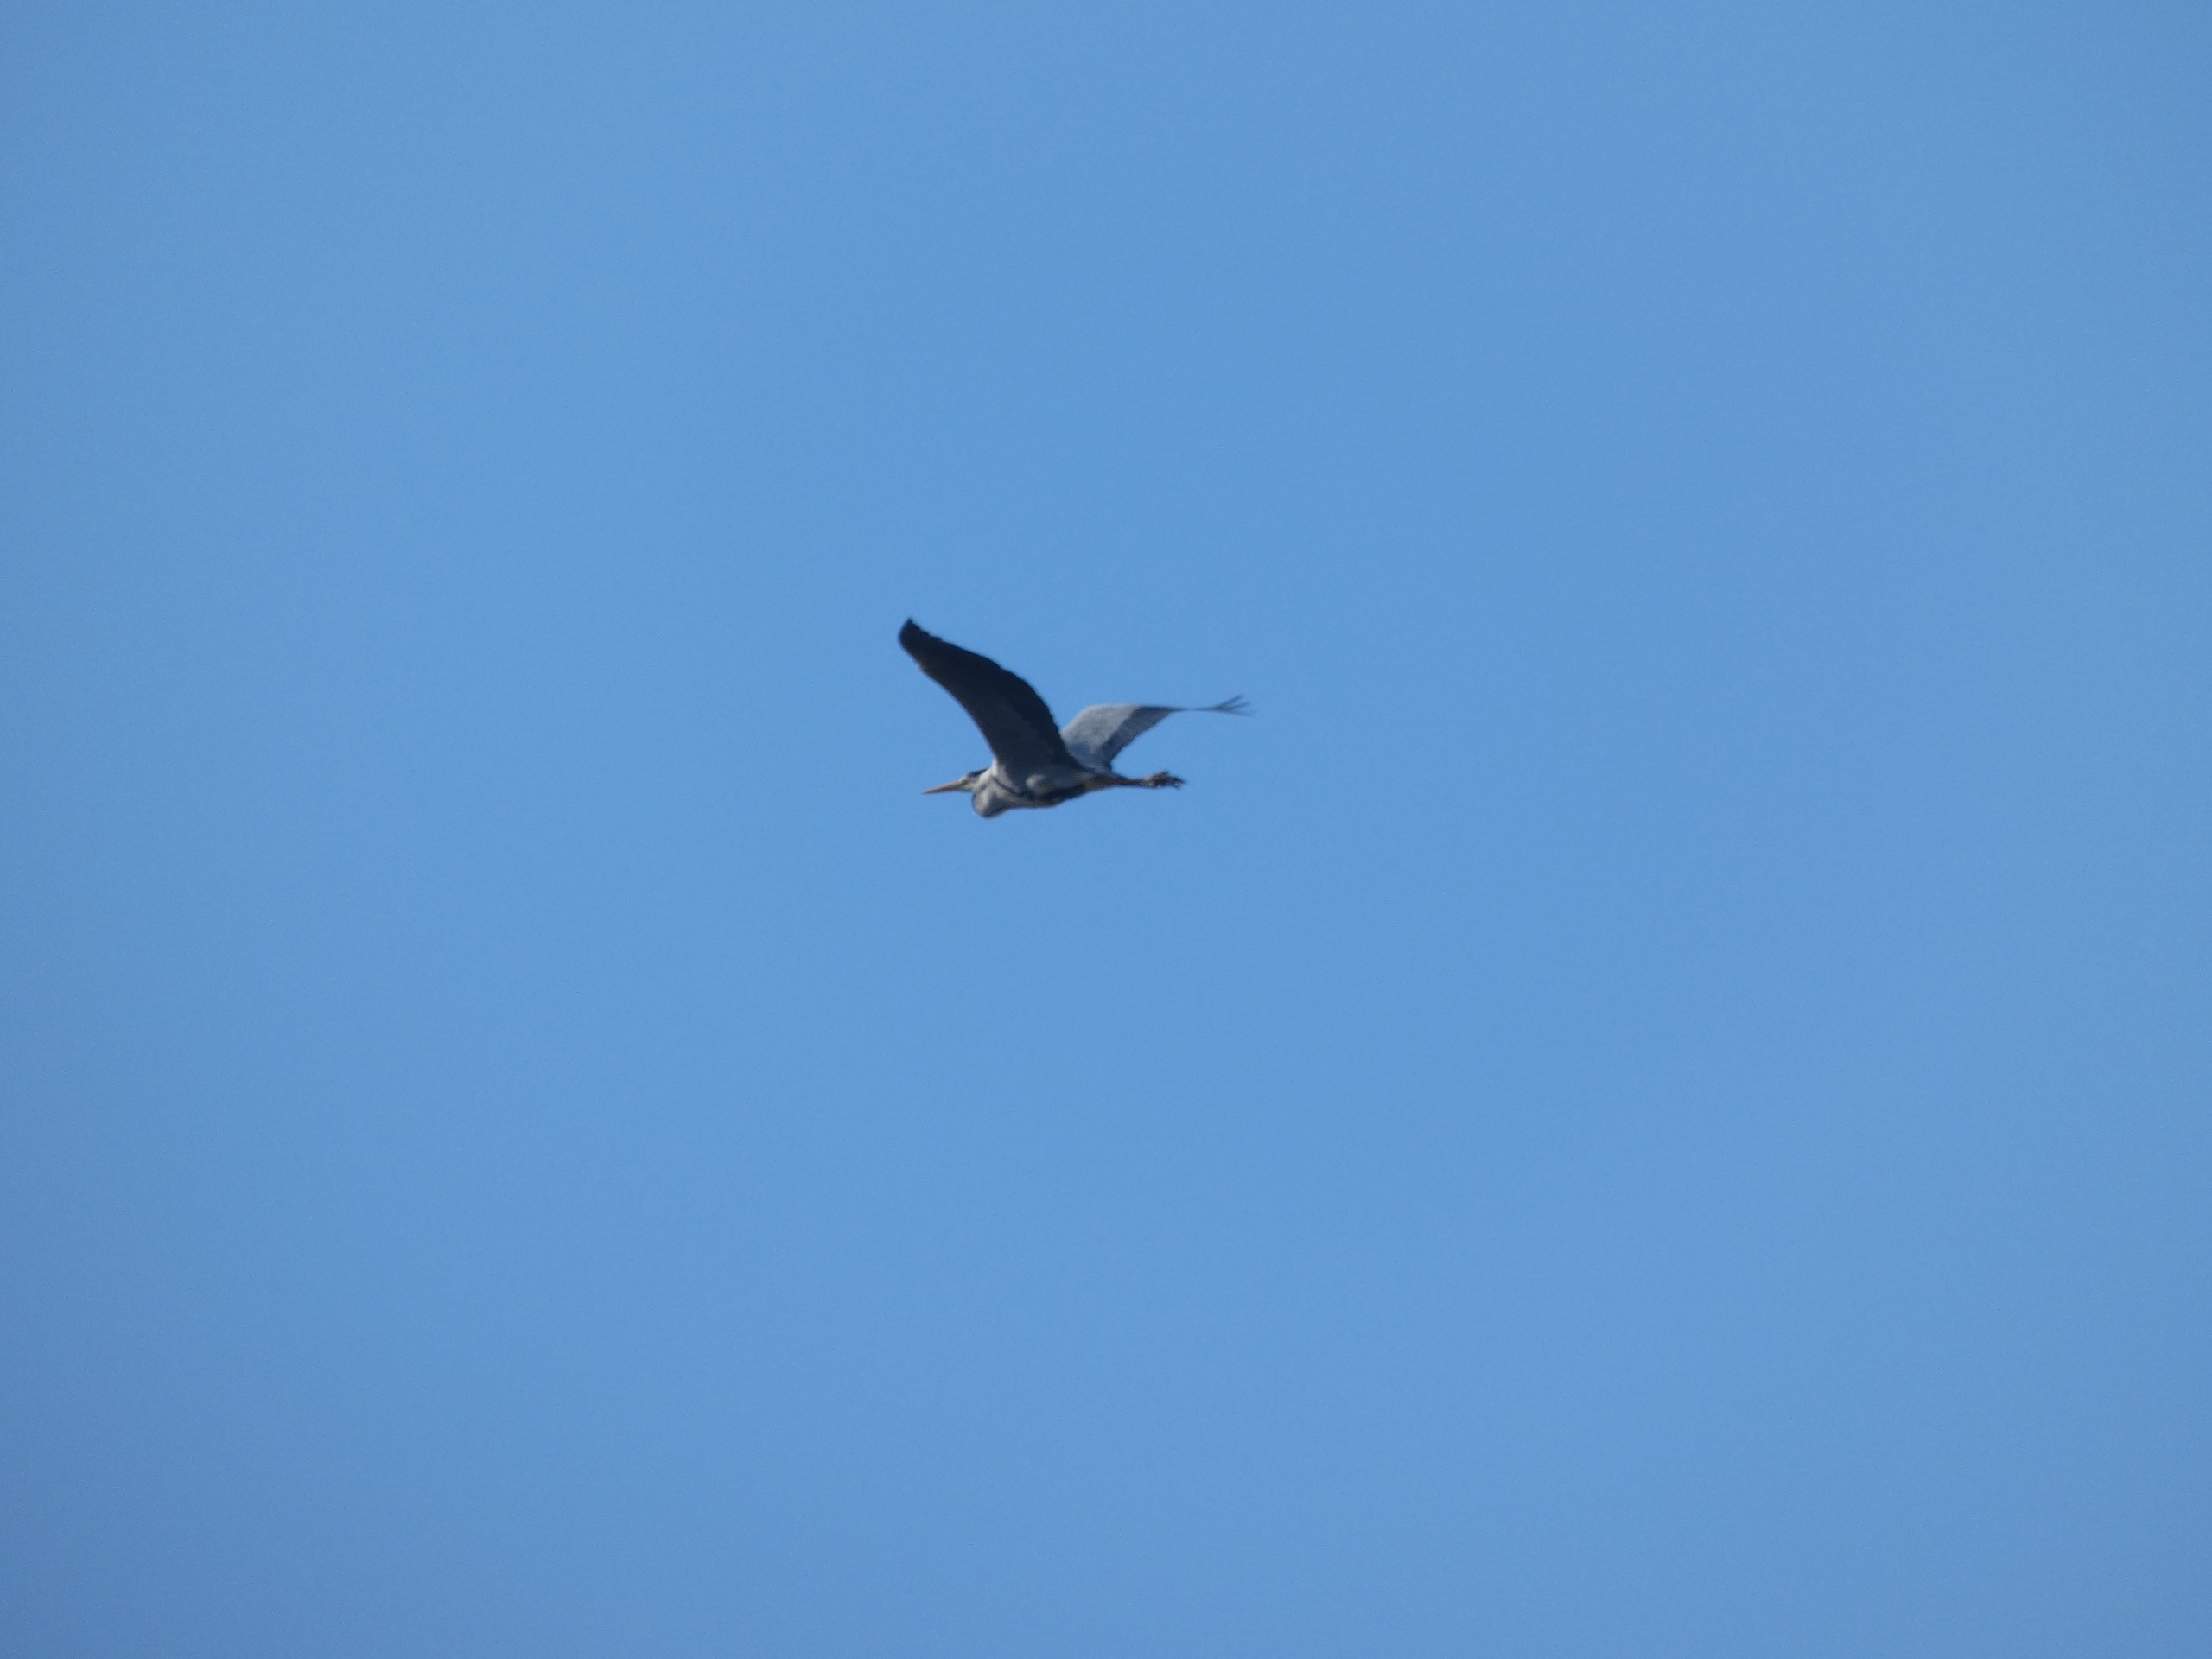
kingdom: Animalia
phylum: Chordata
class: Aves
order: Pelecaniformes
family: Ardeidae
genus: Ardea
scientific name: Ardea cinerea
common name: Fiskehejre
